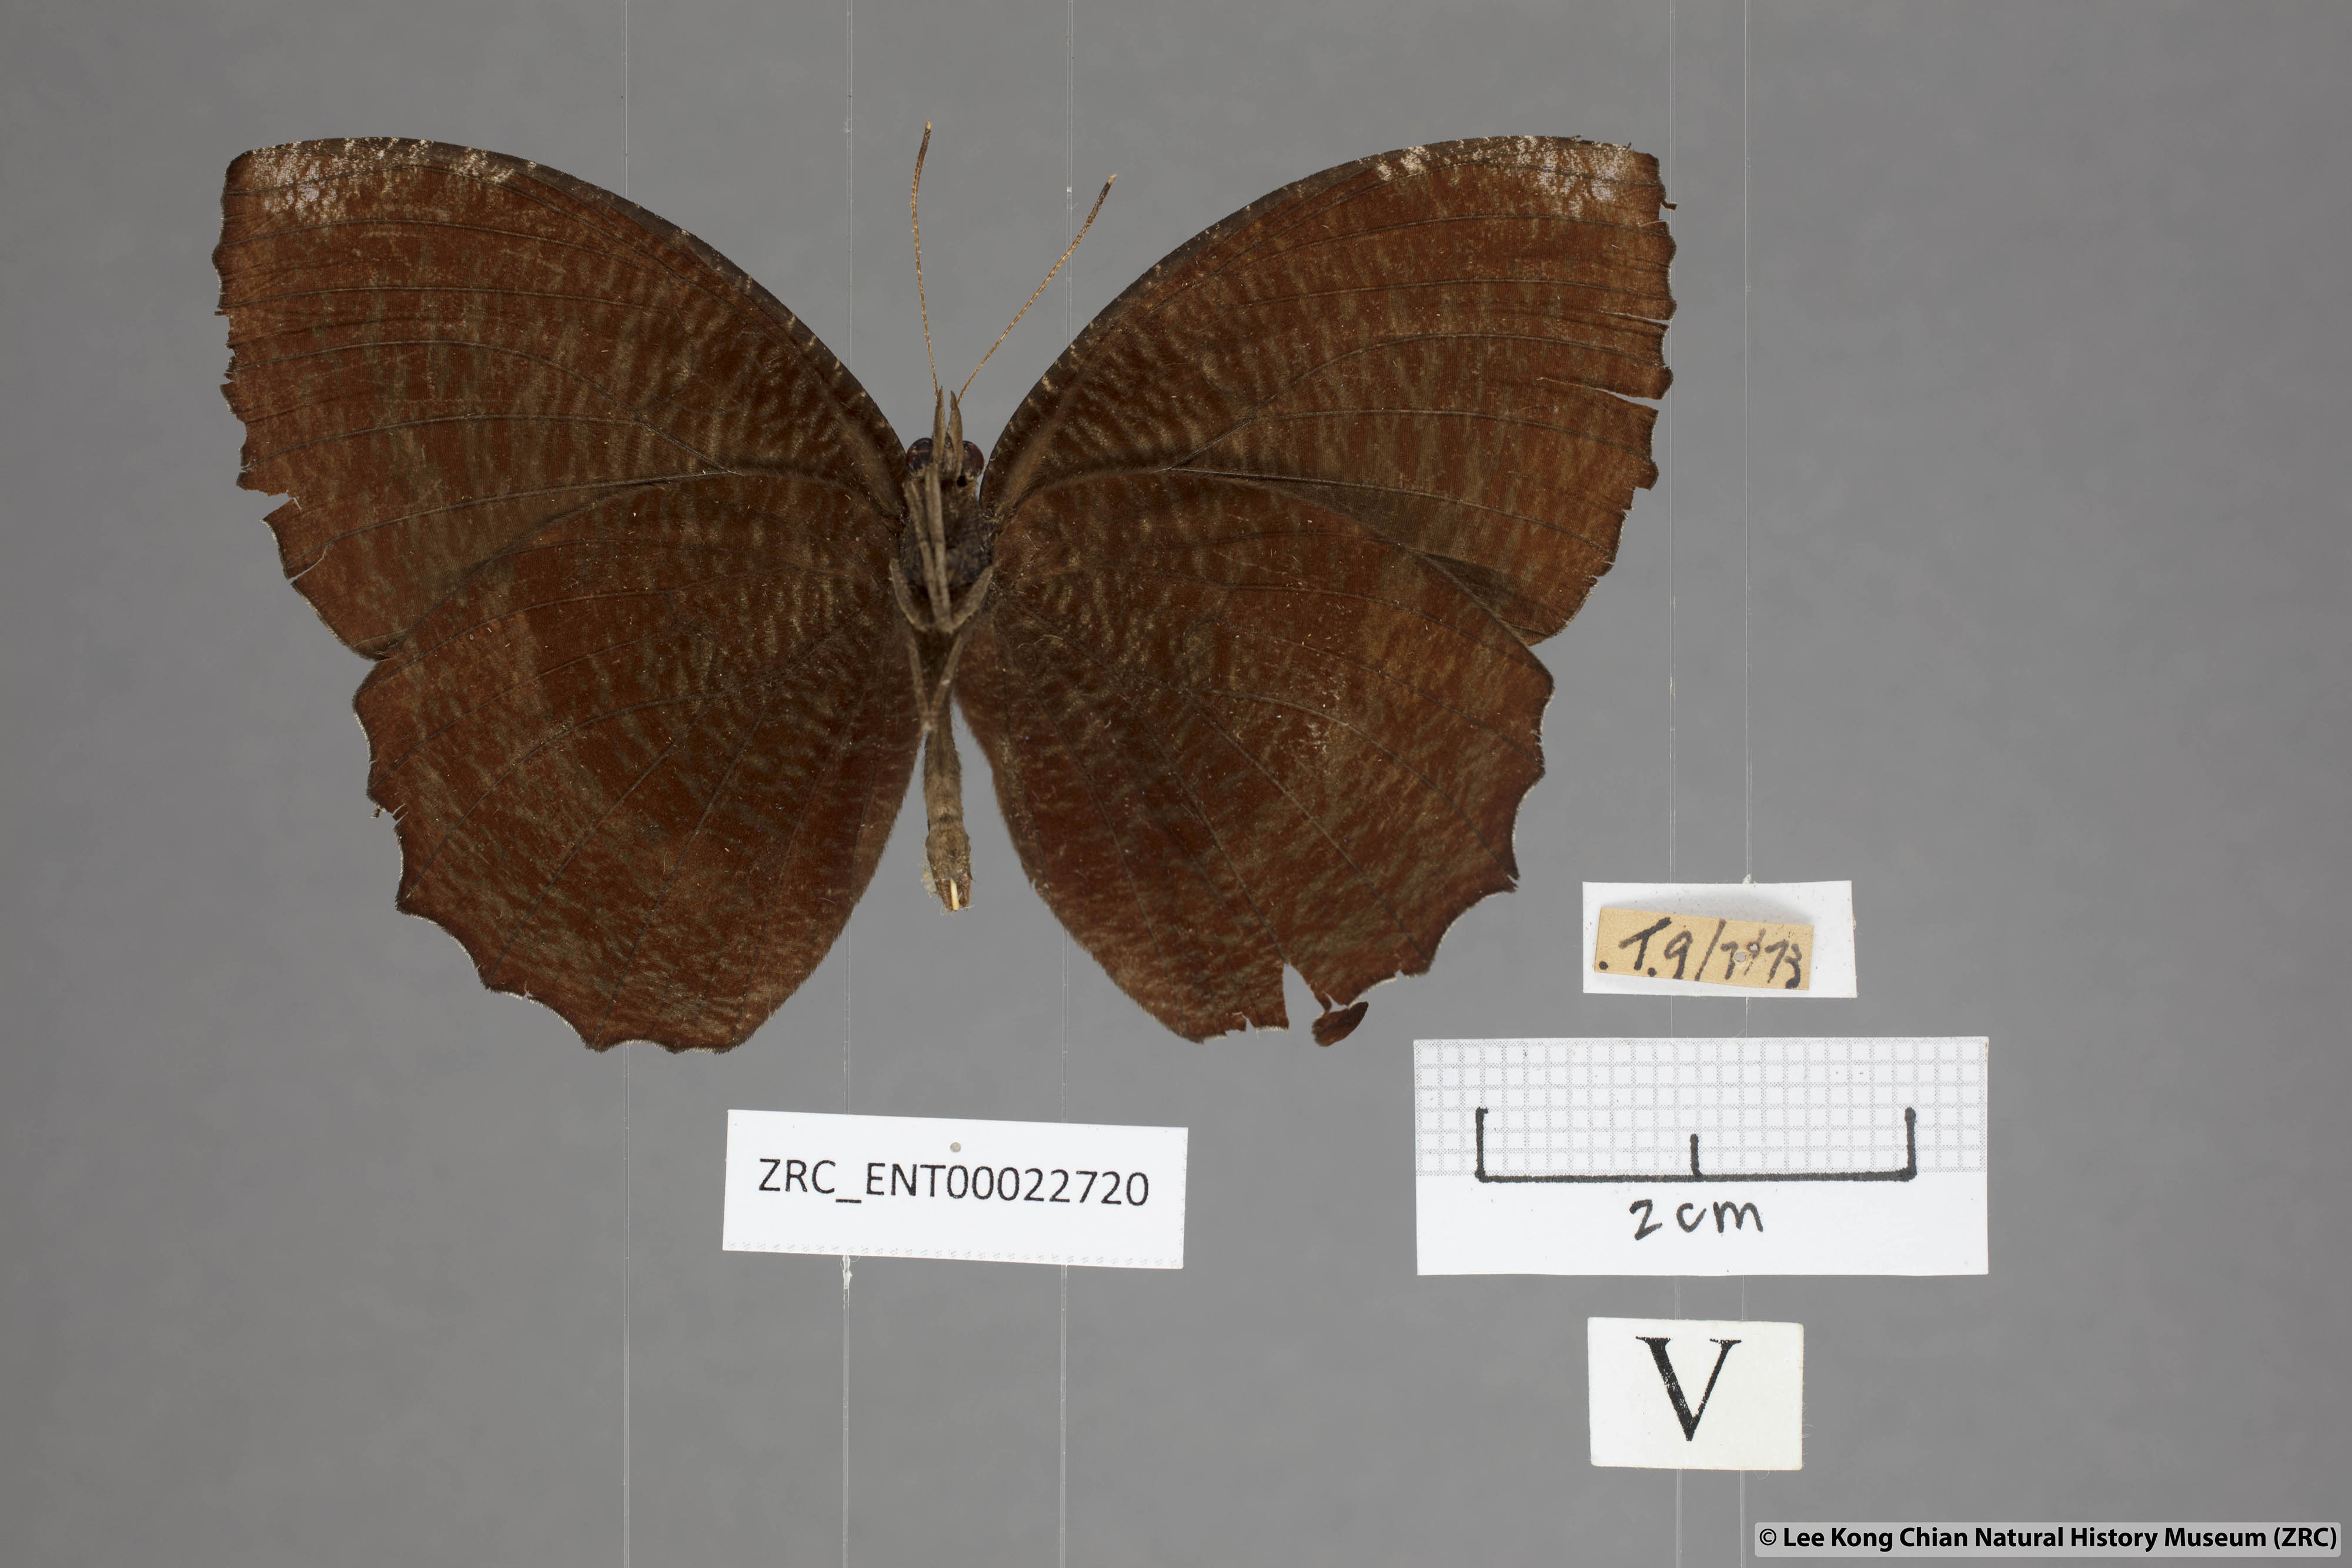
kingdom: Animalia
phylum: Arthropoda
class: Insecta
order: Lepidoptera
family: Nymphalidae
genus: Elymnias
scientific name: Elymnias hypermnestra
